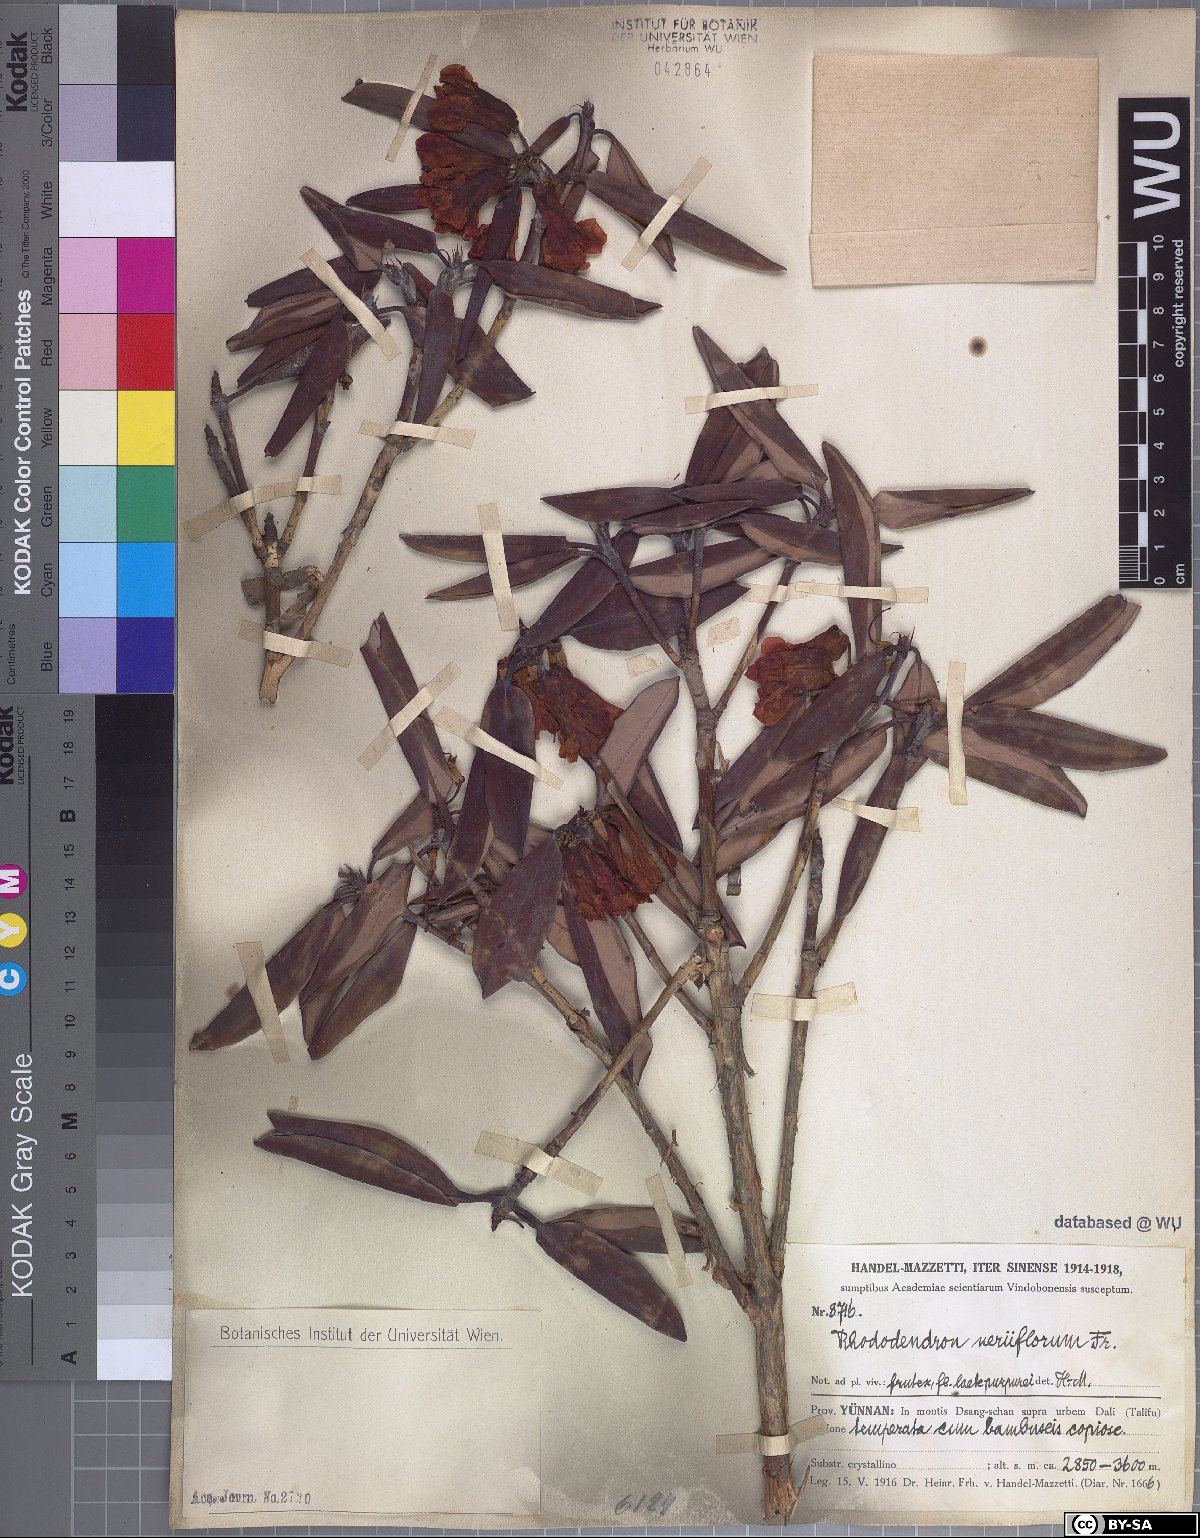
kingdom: Plantae
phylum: Tracheophyta
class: Magnoliopsida
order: Ericales
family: Ericaceae
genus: Rhododendron
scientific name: Rhododendron neriiflorum
